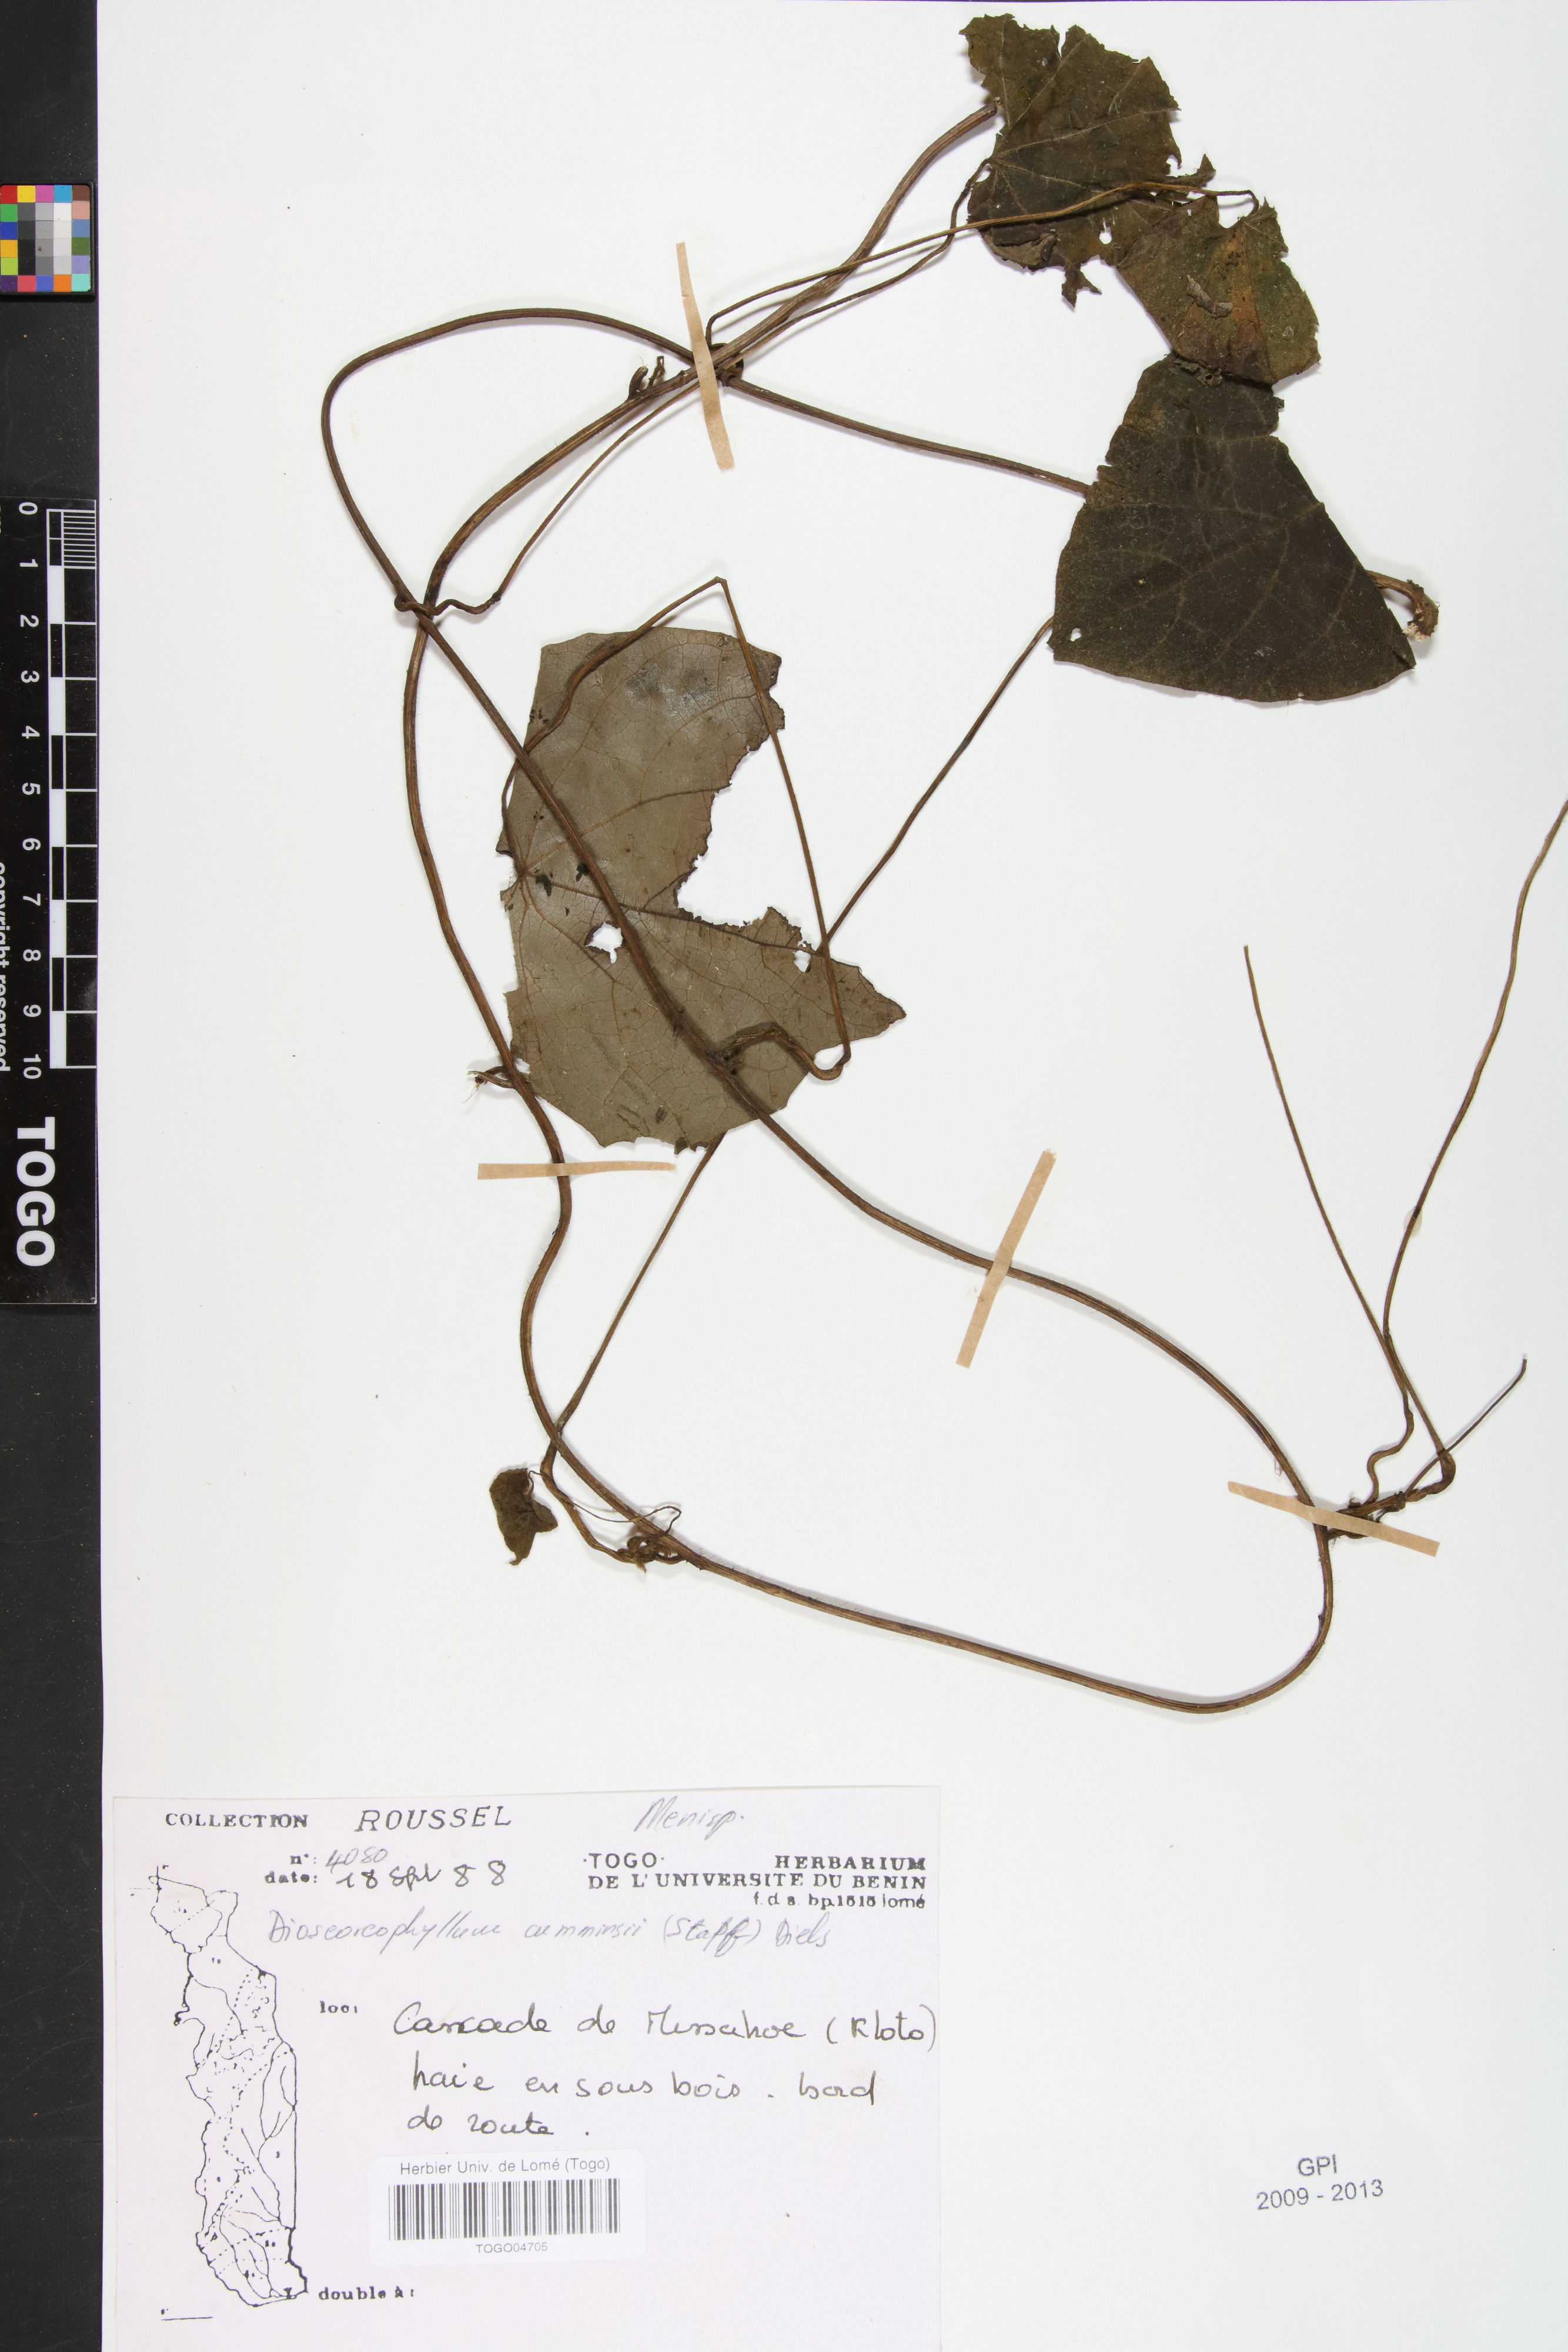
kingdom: Plantae
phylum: Tracheophyta
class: Magnoliopsida
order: Ranunculales
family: Menispermaceae
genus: Dioscoreophyllum
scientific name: Dioscoreophyllum volkensii
